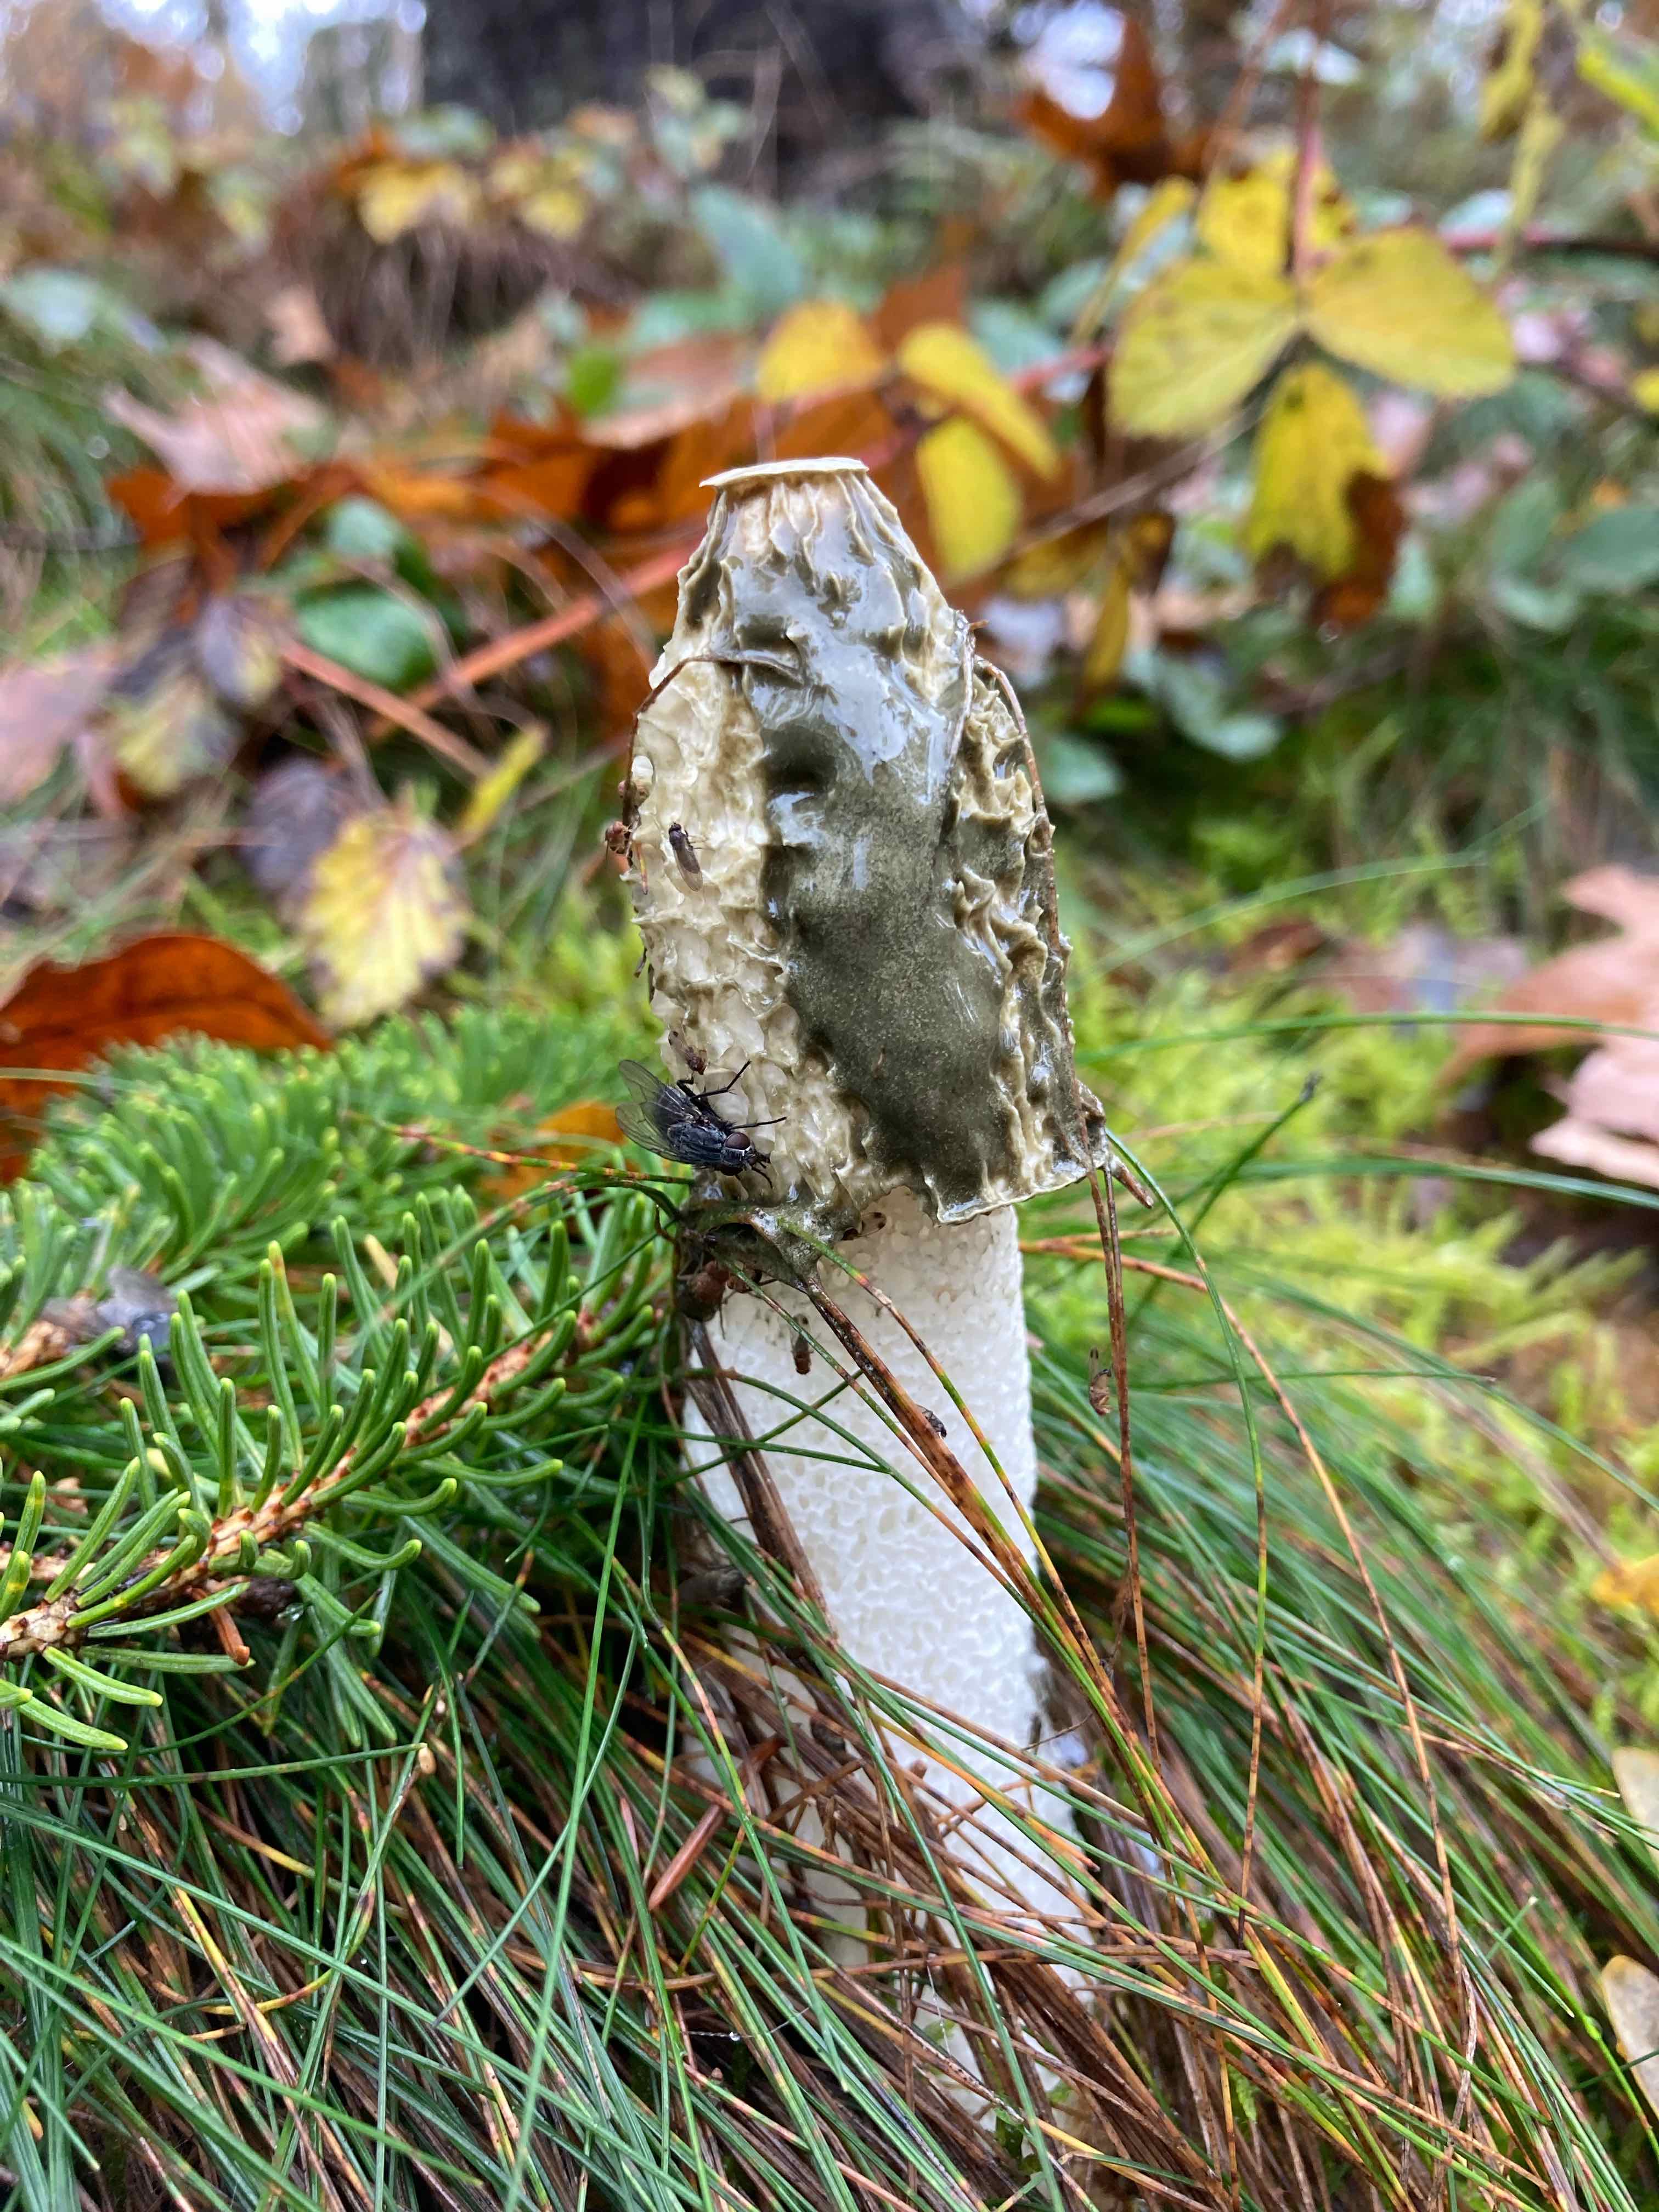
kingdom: Fungi
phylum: Basidiomycota
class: Agaricomycetes
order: Phallales
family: Phallaceae
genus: Phallus
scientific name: Phallus impudicus
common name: almindelig stinksvamp
